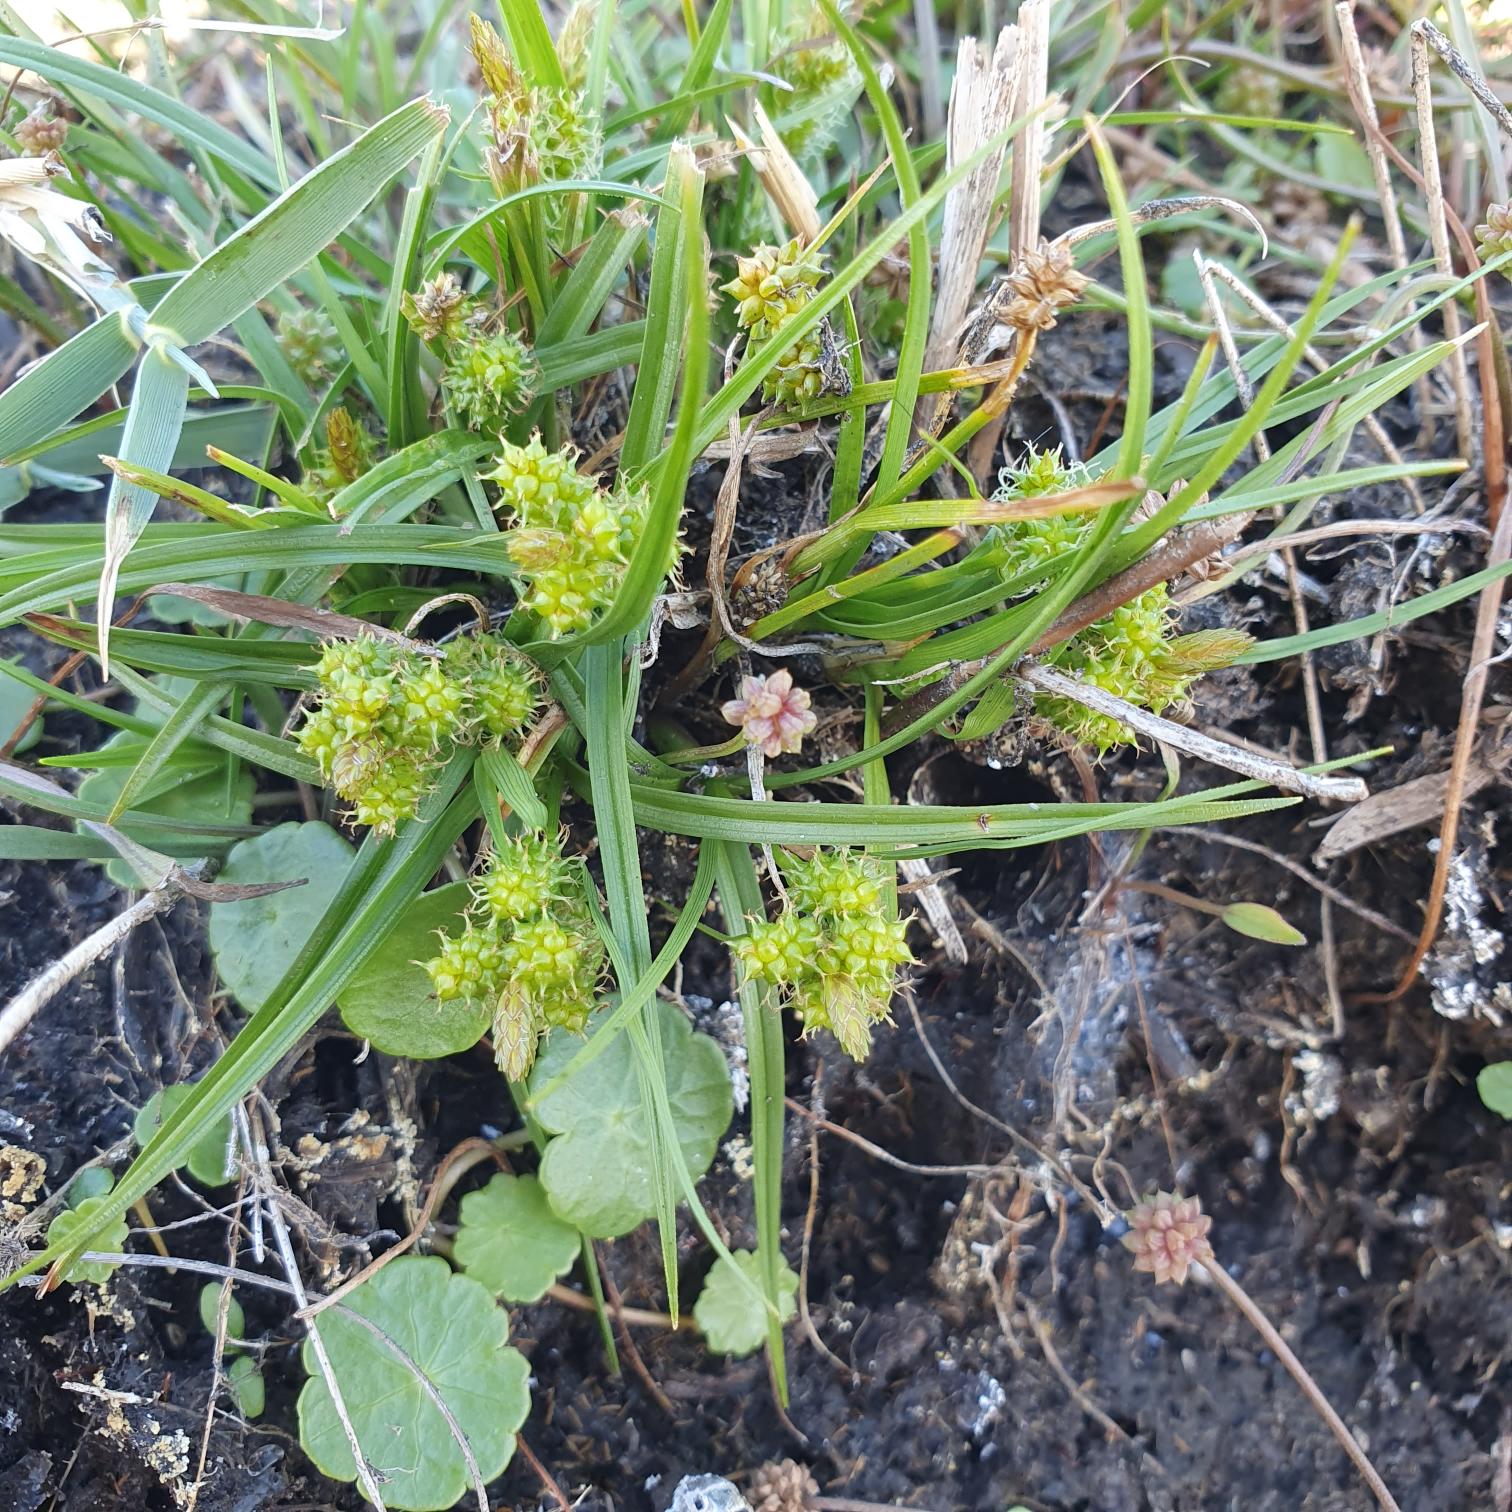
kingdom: Plantae
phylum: Tracheophyta
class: Liliopsida
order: Poales
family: Cyperaceae
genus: Carex
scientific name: Carex oederi
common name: Dværg-star
